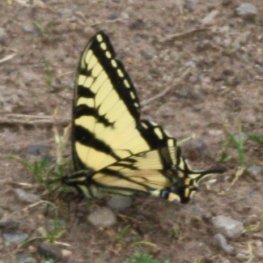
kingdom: Animalia
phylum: Arthropoda
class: Insecta
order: Lepidoptera
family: Papilionidae
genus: Pterourus
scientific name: Pterourus canadensis
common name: Canadian Tiger Swallowtail
